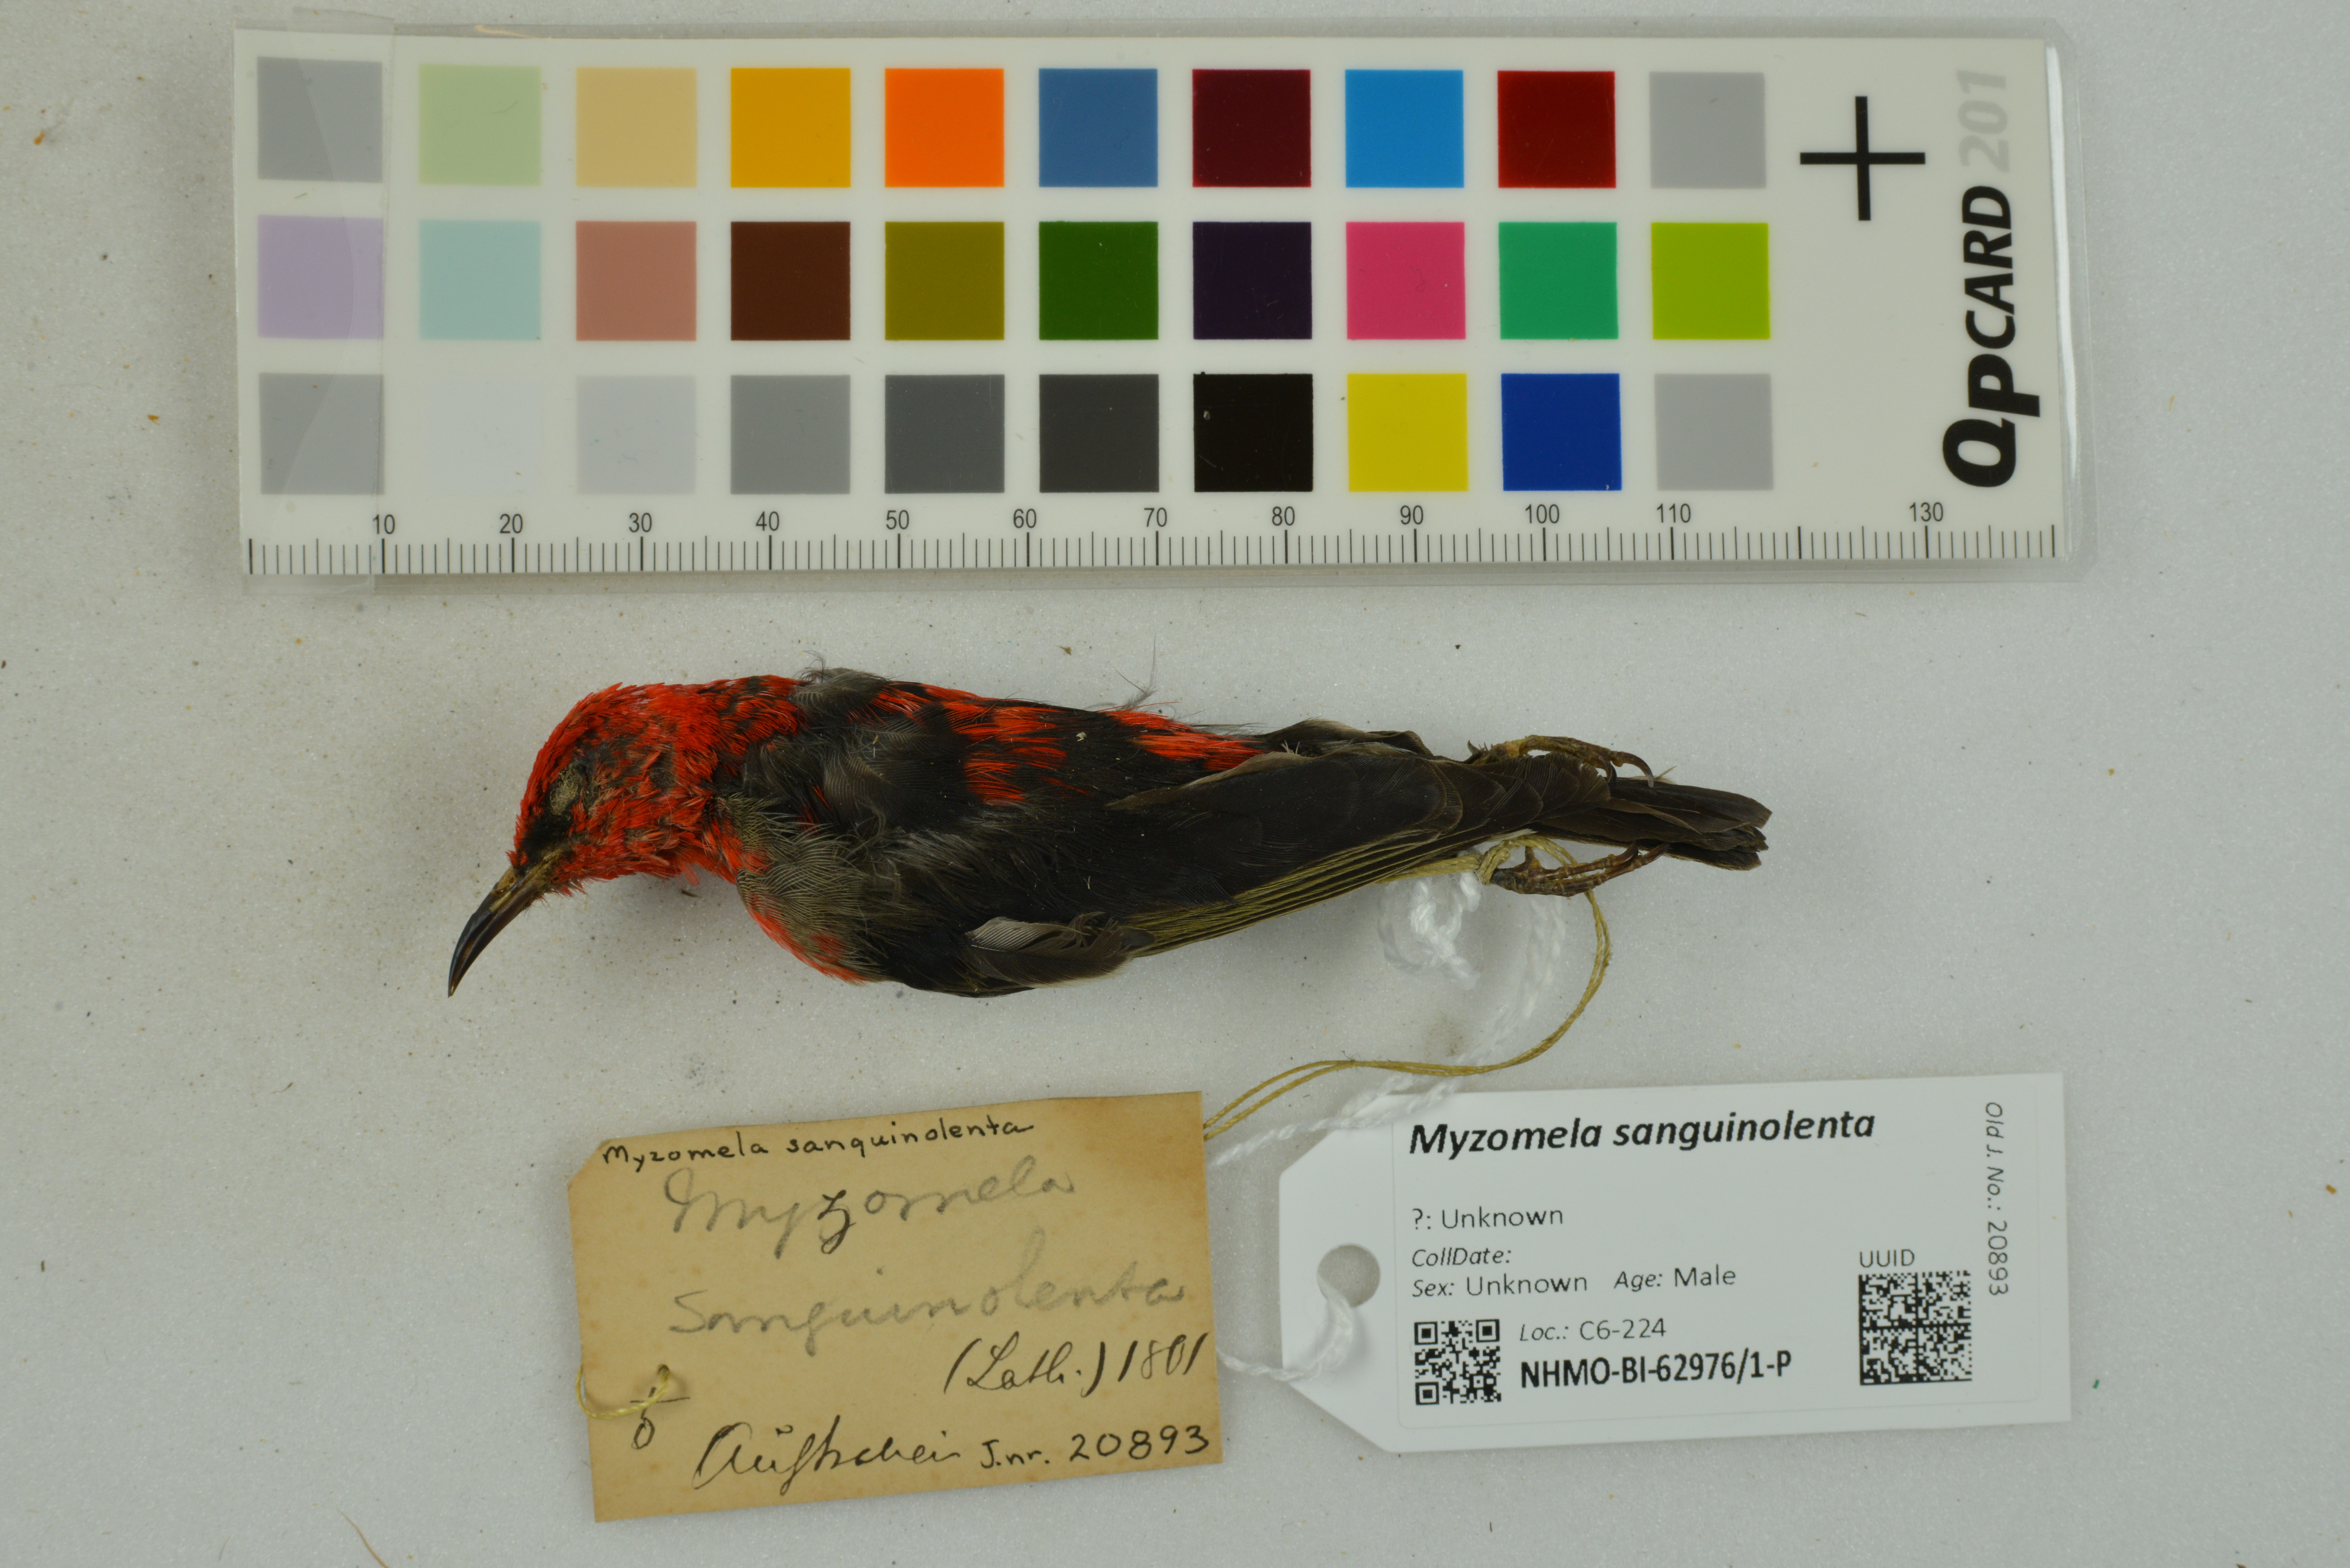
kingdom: Animalia
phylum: Chordata
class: Aves
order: Passeriformes
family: Meliphagidae
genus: Myzomela
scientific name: Myzomela sanguinolenta
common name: Scarlet myzomela
